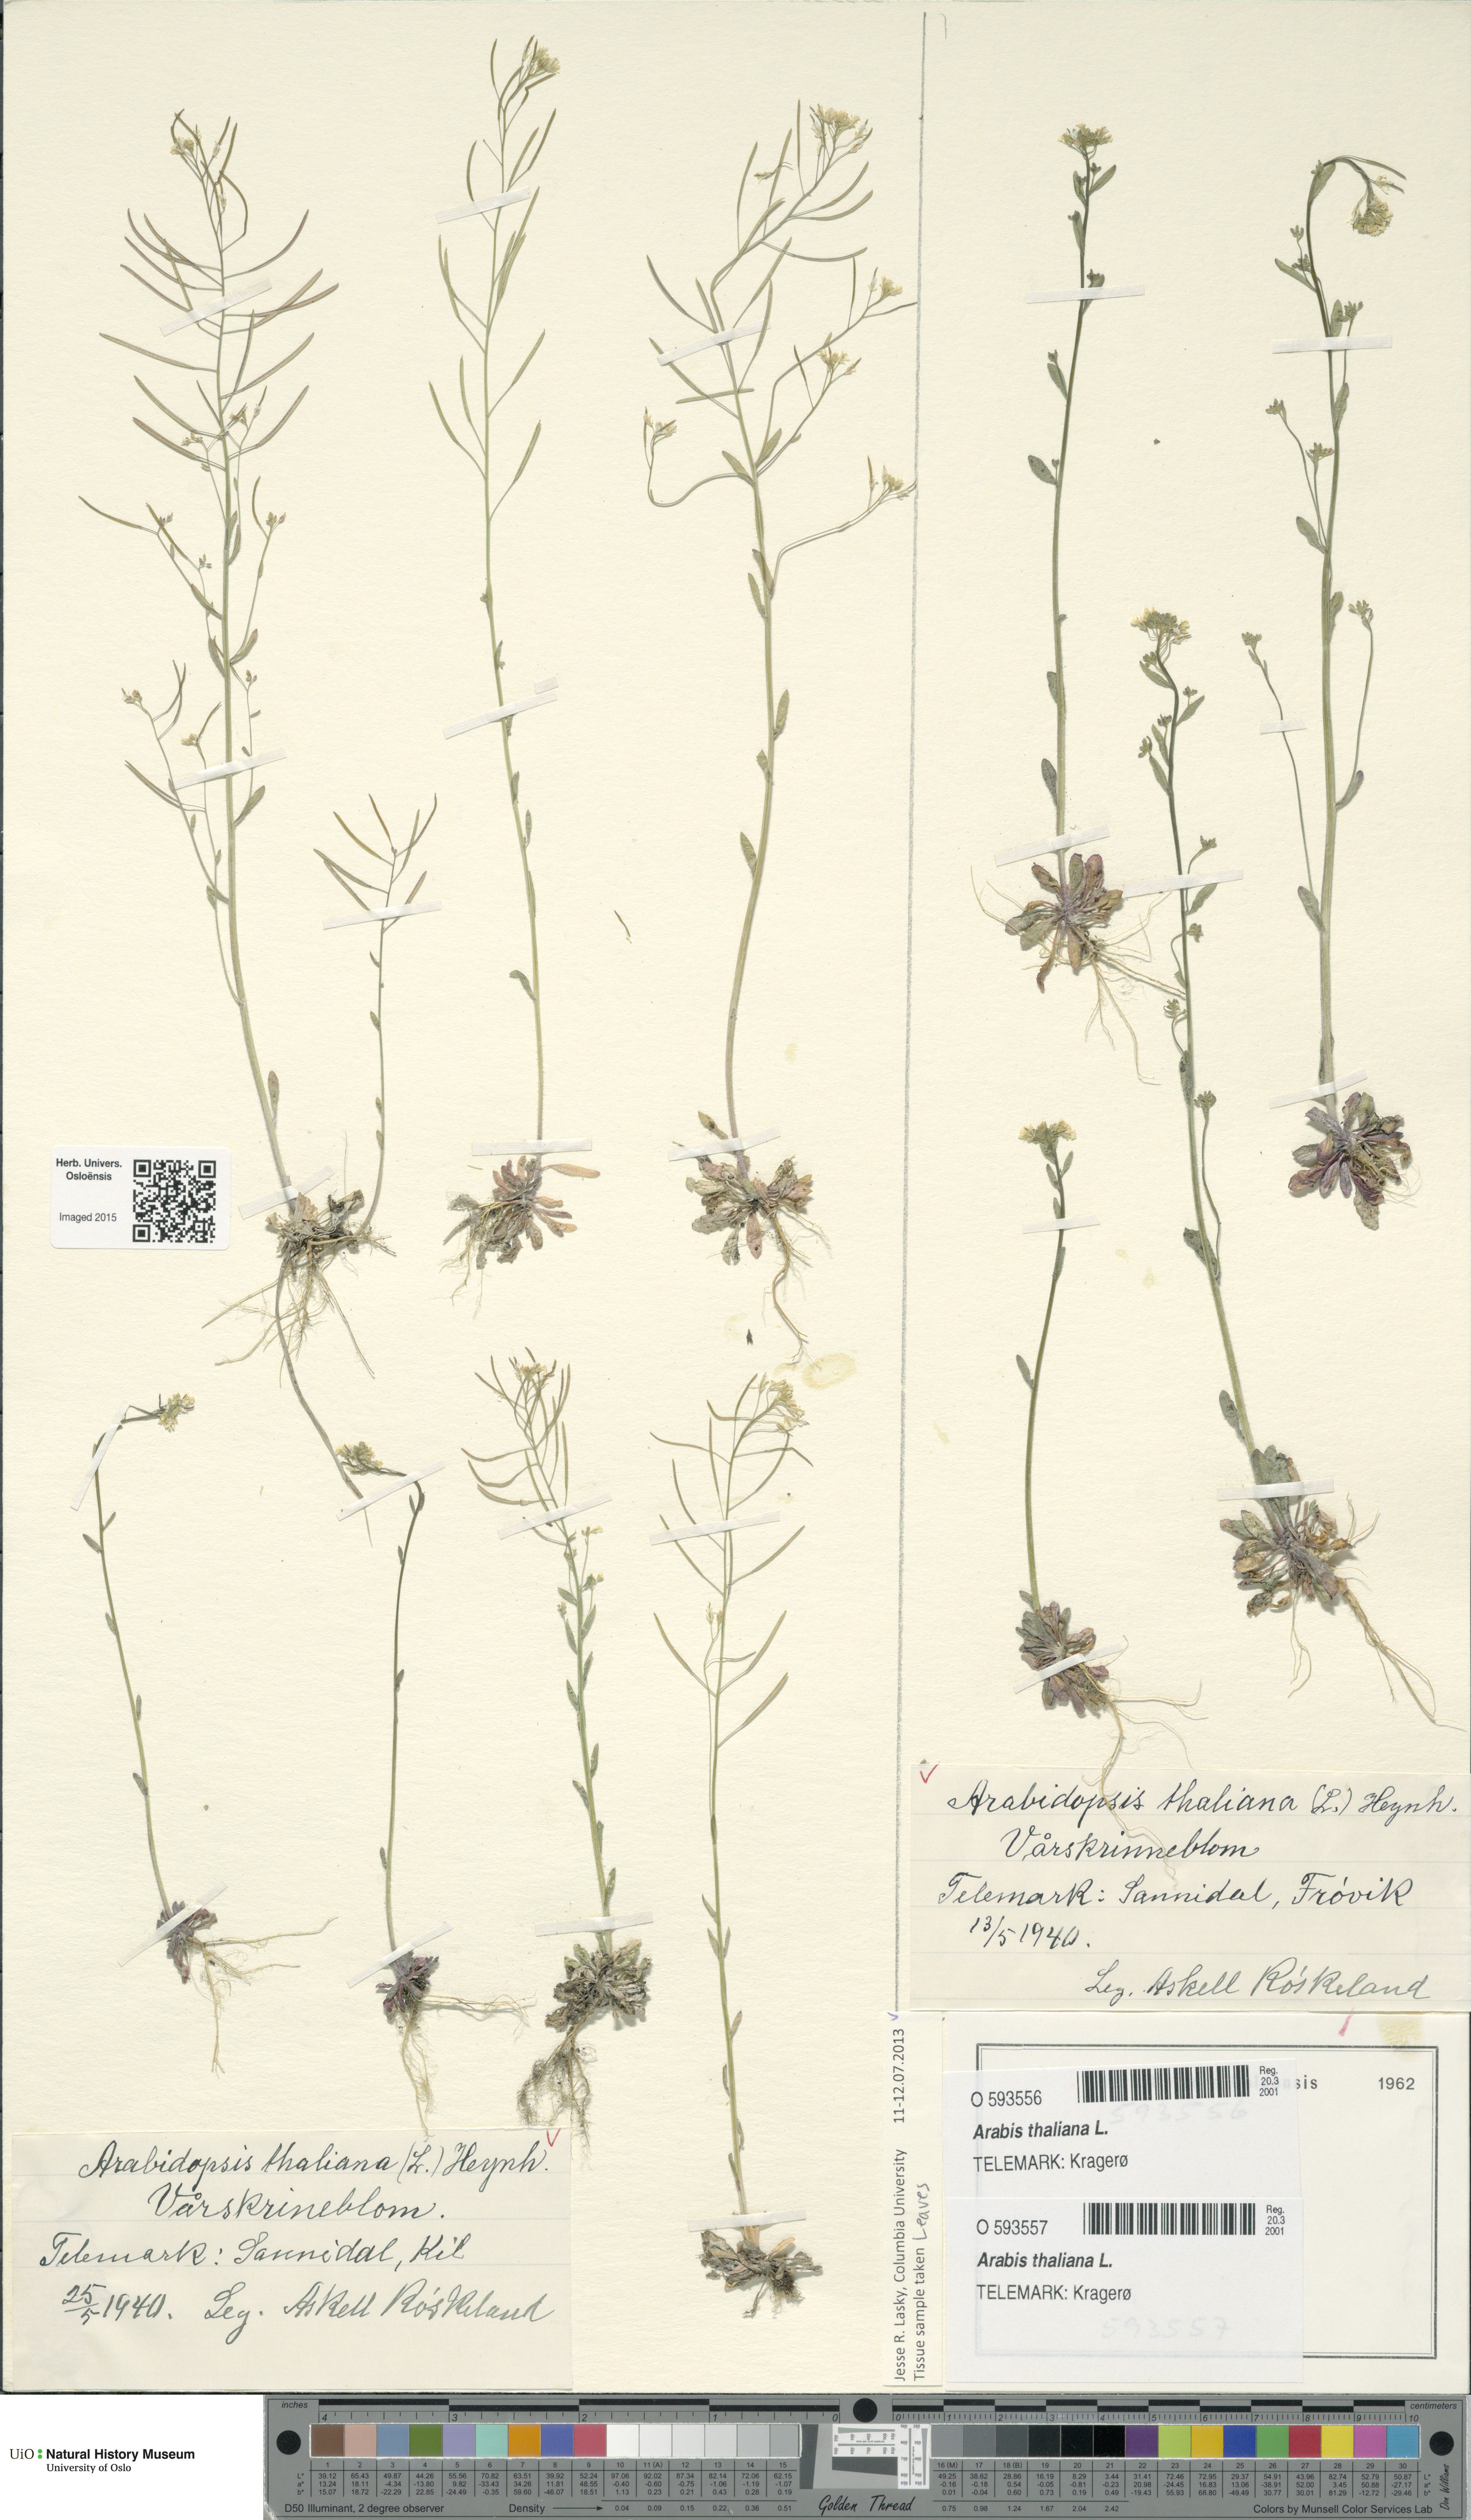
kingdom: Plantae
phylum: Tracheophyta
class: Magnoliopsida
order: Brassicales
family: Brassicaceae
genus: Arabidopsis
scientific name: Arabidopsis thaliana
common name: Thale cress
